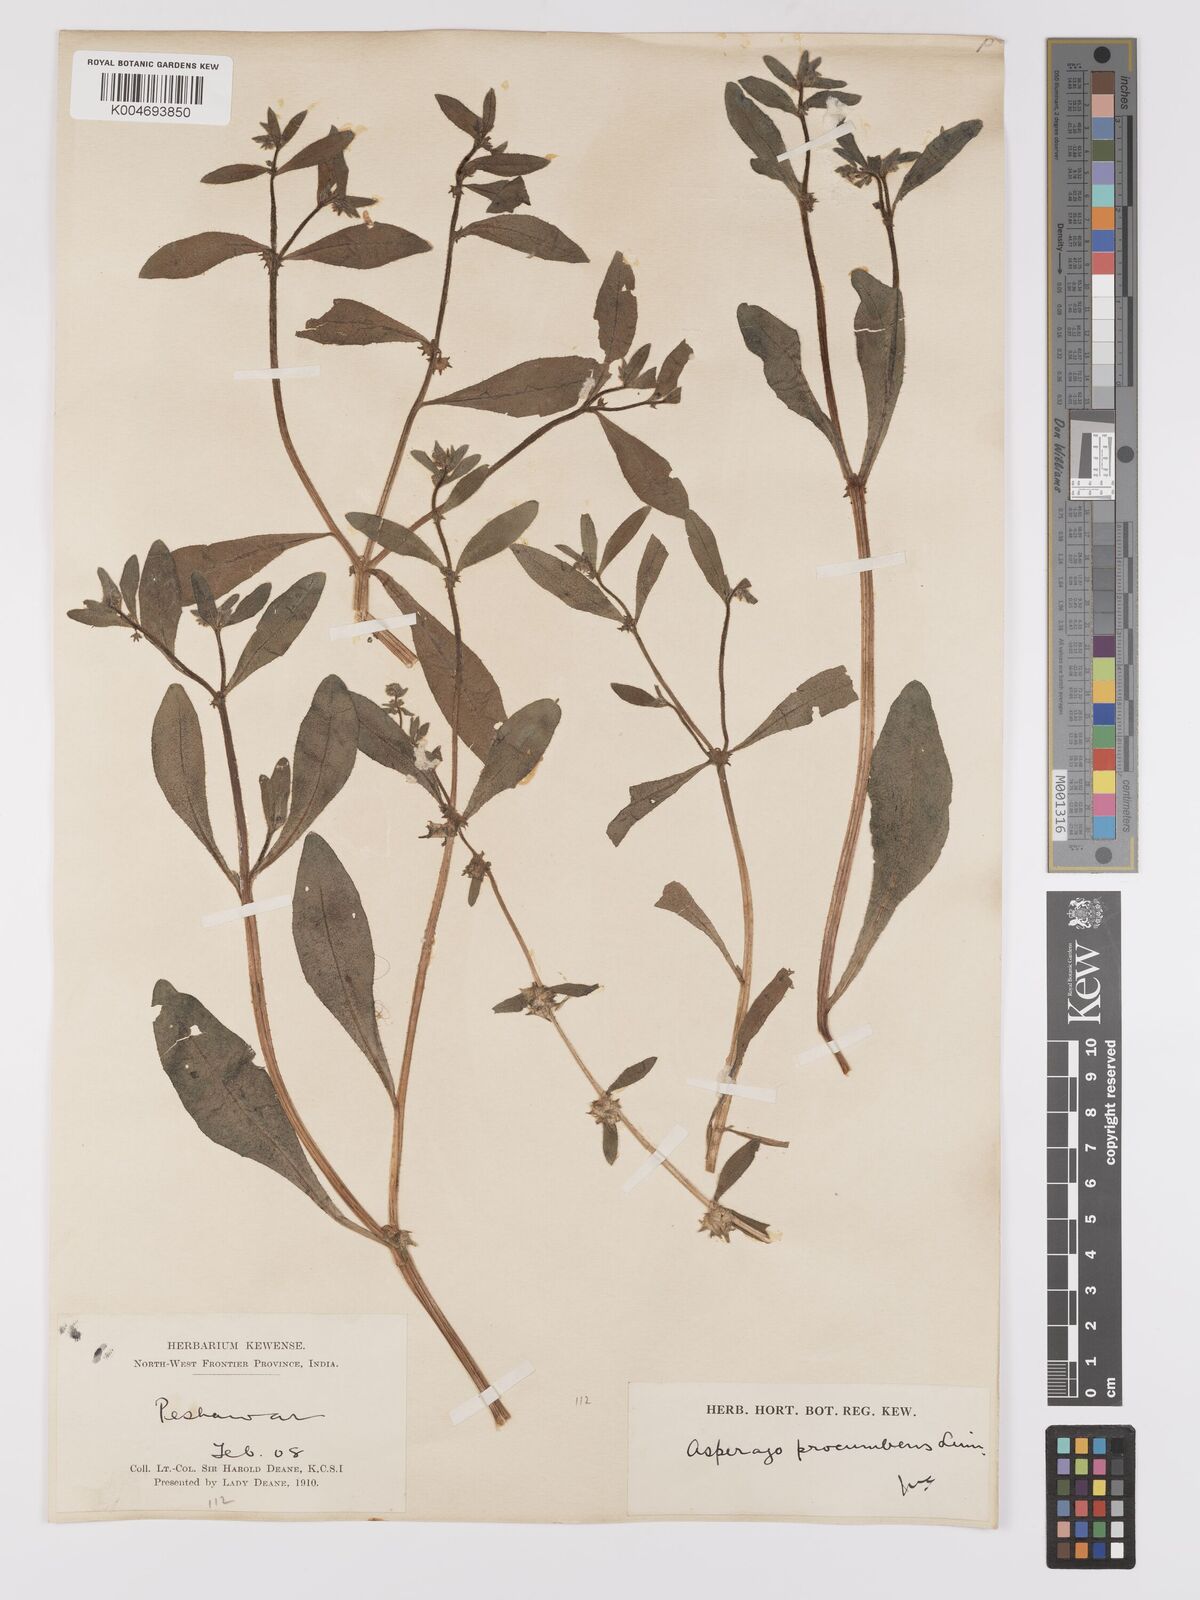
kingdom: Plantae
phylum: Tracheophyta
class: Magnoliopsida
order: Boraginales
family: Boraginaceae
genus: Asperugo
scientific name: Asperugo procumbens
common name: Madwort
